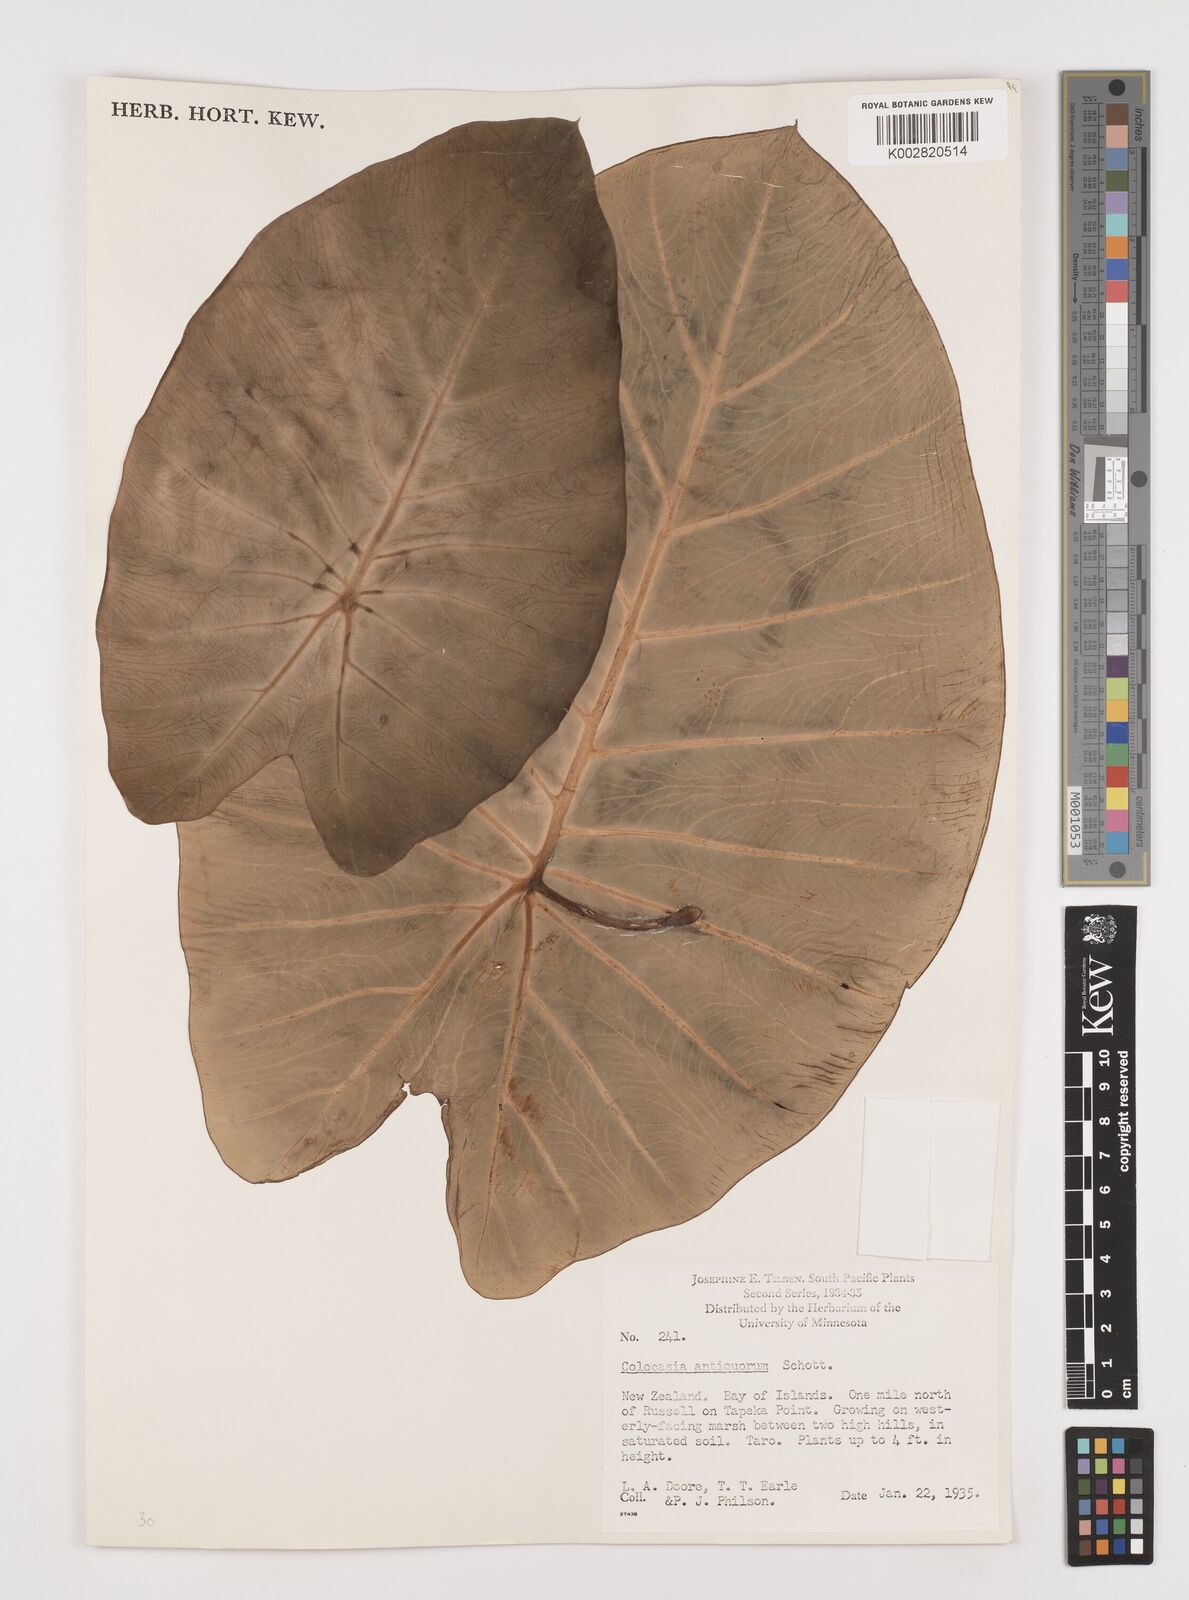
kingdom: Plantae
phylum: Tracheophyta
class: Liliopsida
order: Alismatales
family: Araceae
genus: Colocasia
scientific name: Colocasia esculenta
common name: Taro
